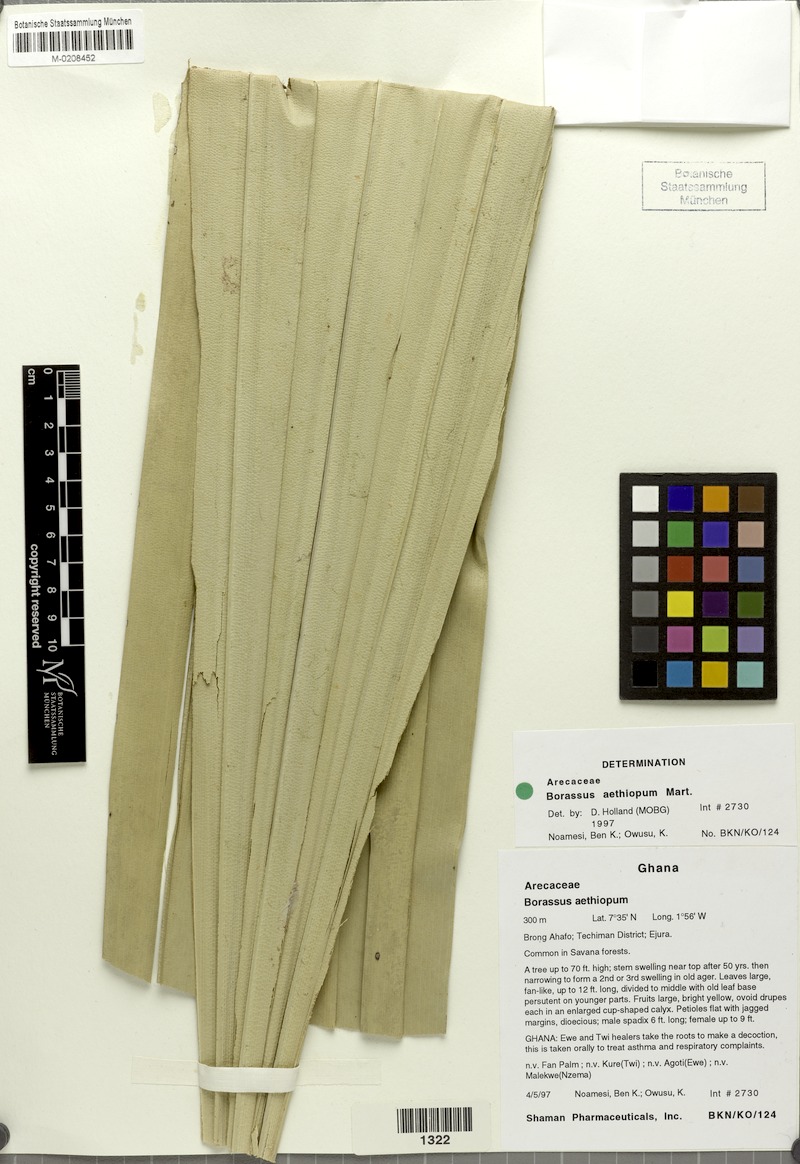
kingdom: Plantae
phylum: Tracheophyta
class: Liliopsida
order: Arecales
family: Arecaceae
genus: Borassus
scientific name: Borassus aethiopum
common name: Elephant palm
